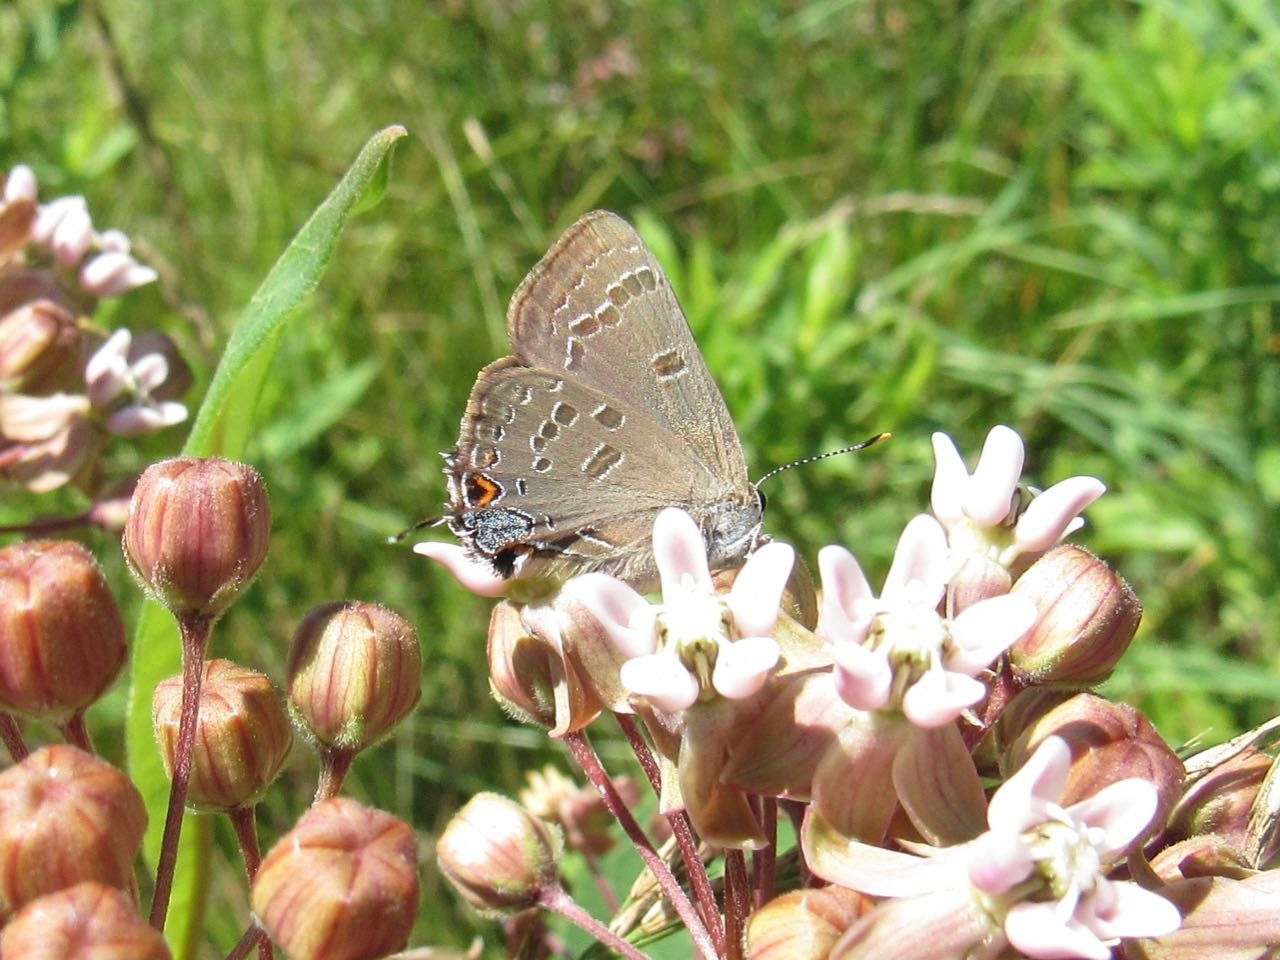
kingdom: Animalia
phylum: Arthropoda
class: Insecta
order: Lepidoptera
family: Lycaenidae
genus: Strymon
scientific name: Strymon caryaevorus
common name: Hickory Hairstreak
